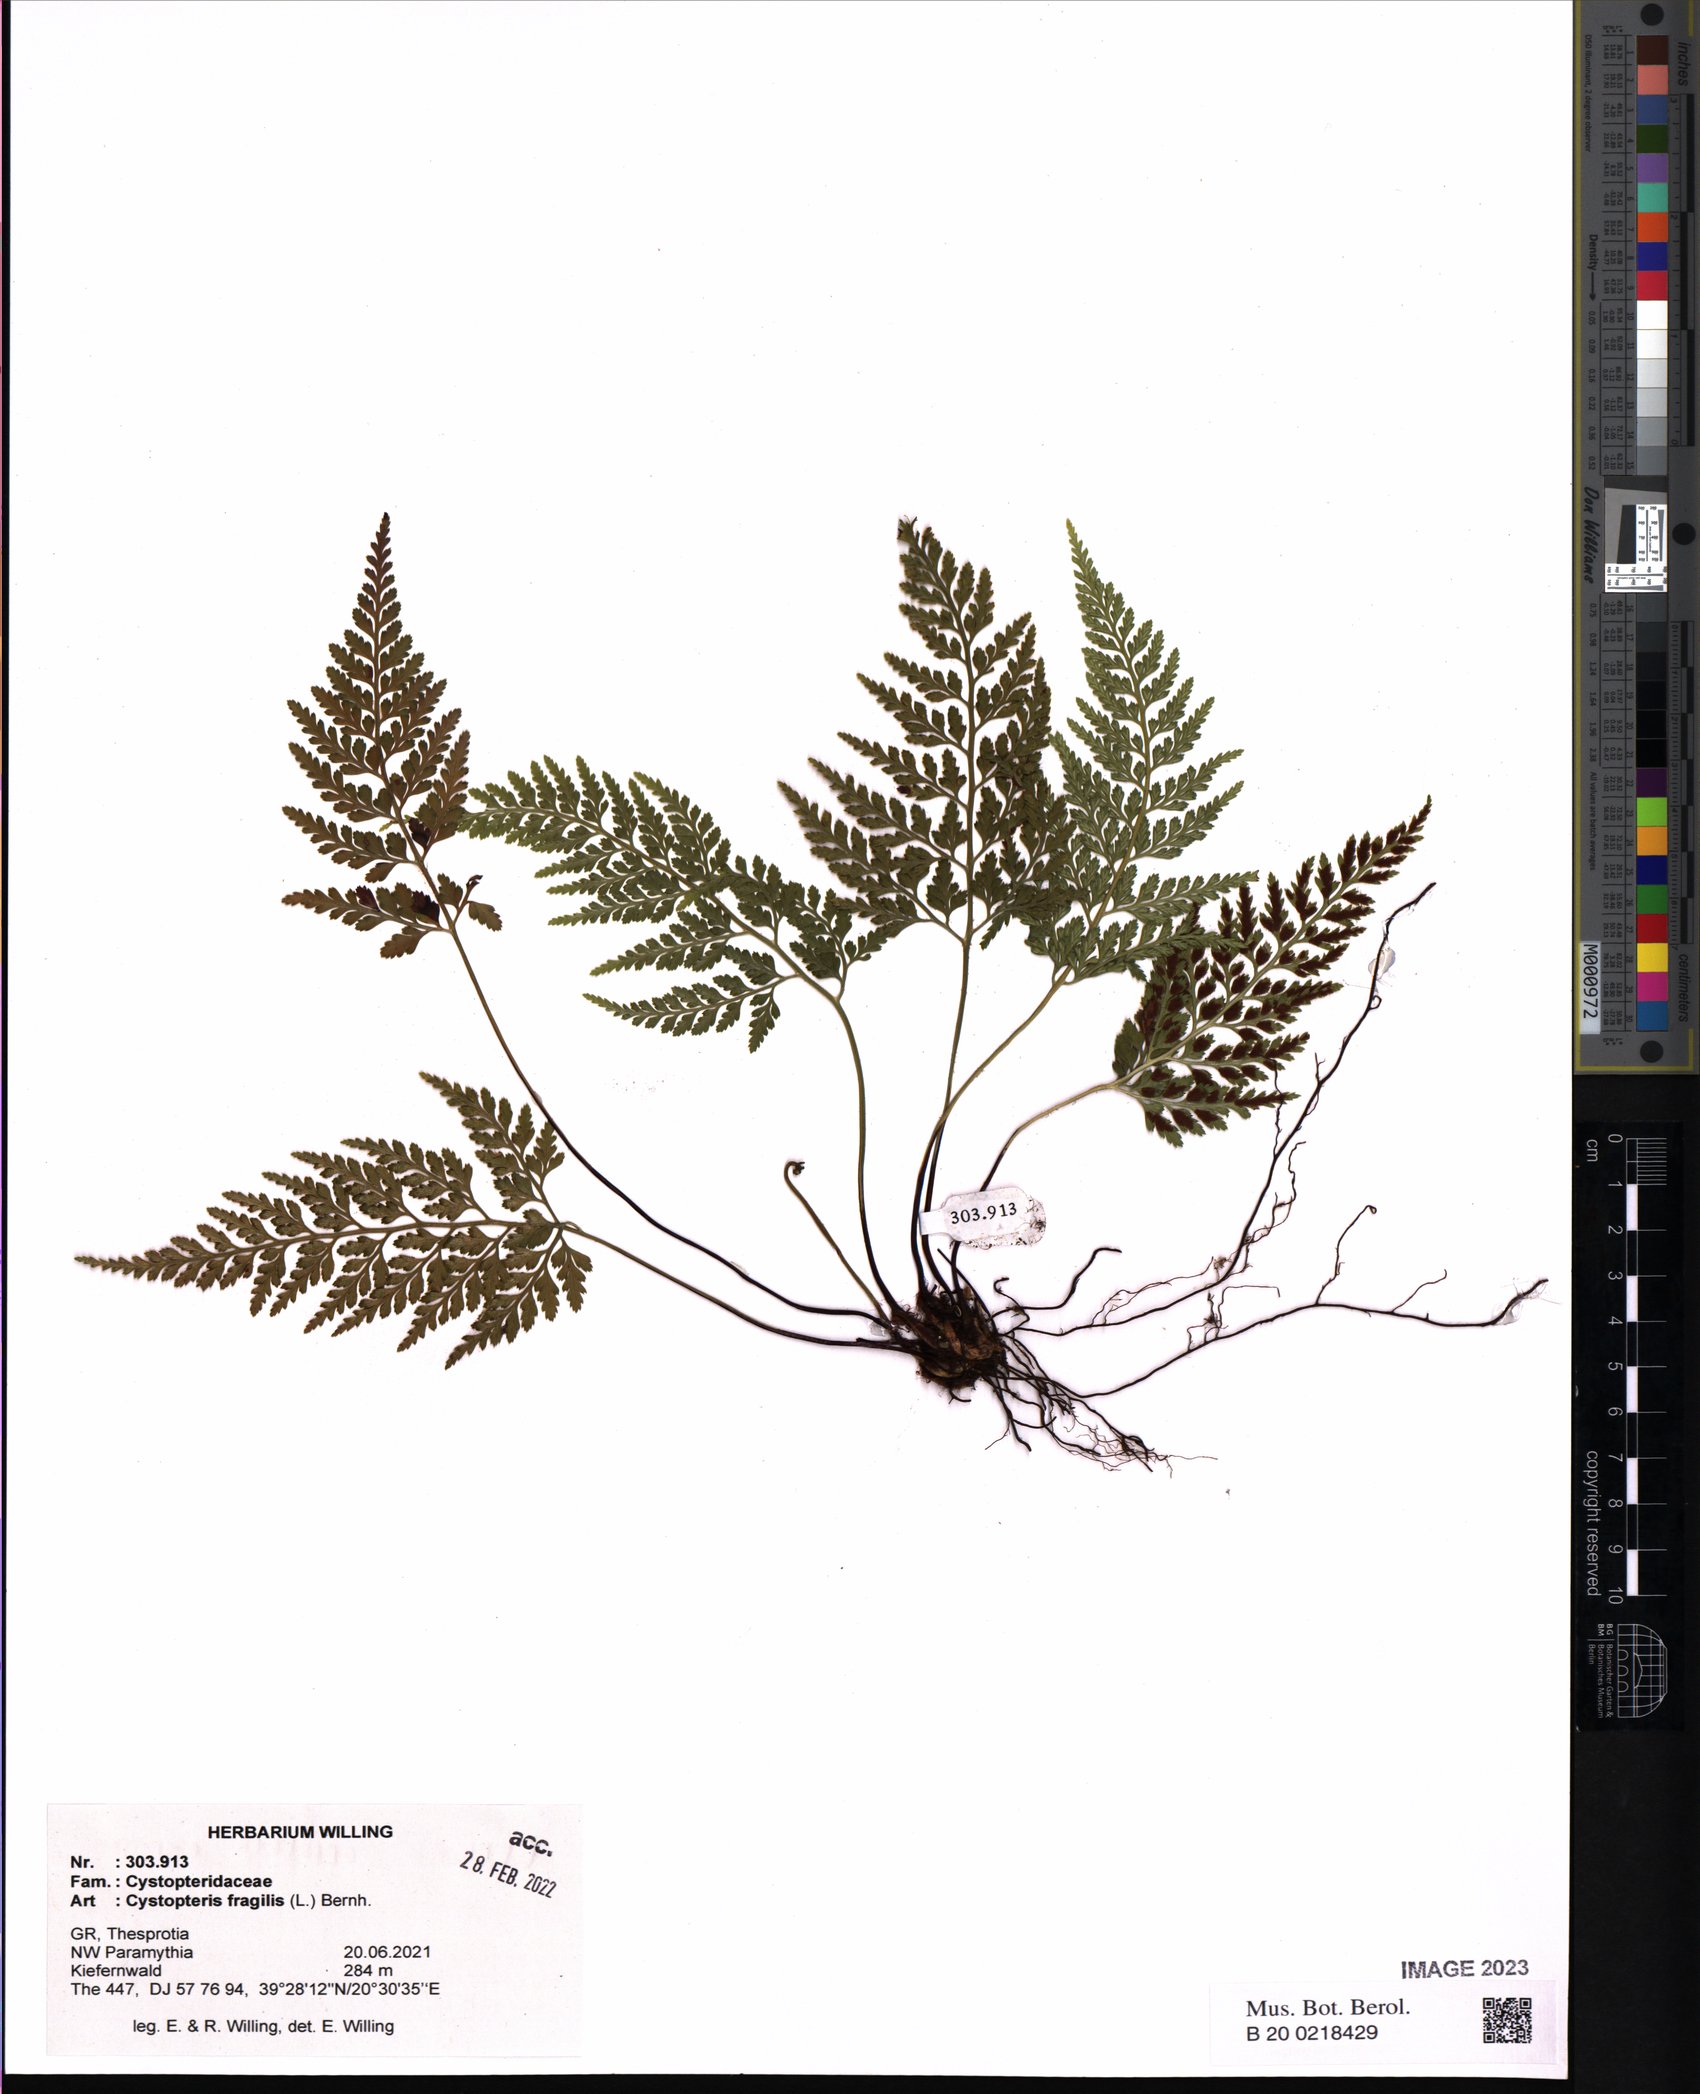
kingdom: Plantae
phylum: Tracheophyta
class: Polypodiopsida
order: Polypodiales
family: Cystopteridaceae
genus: Cystopteris
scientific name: Cystopteris fragilis
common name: Brittle bladder fern
